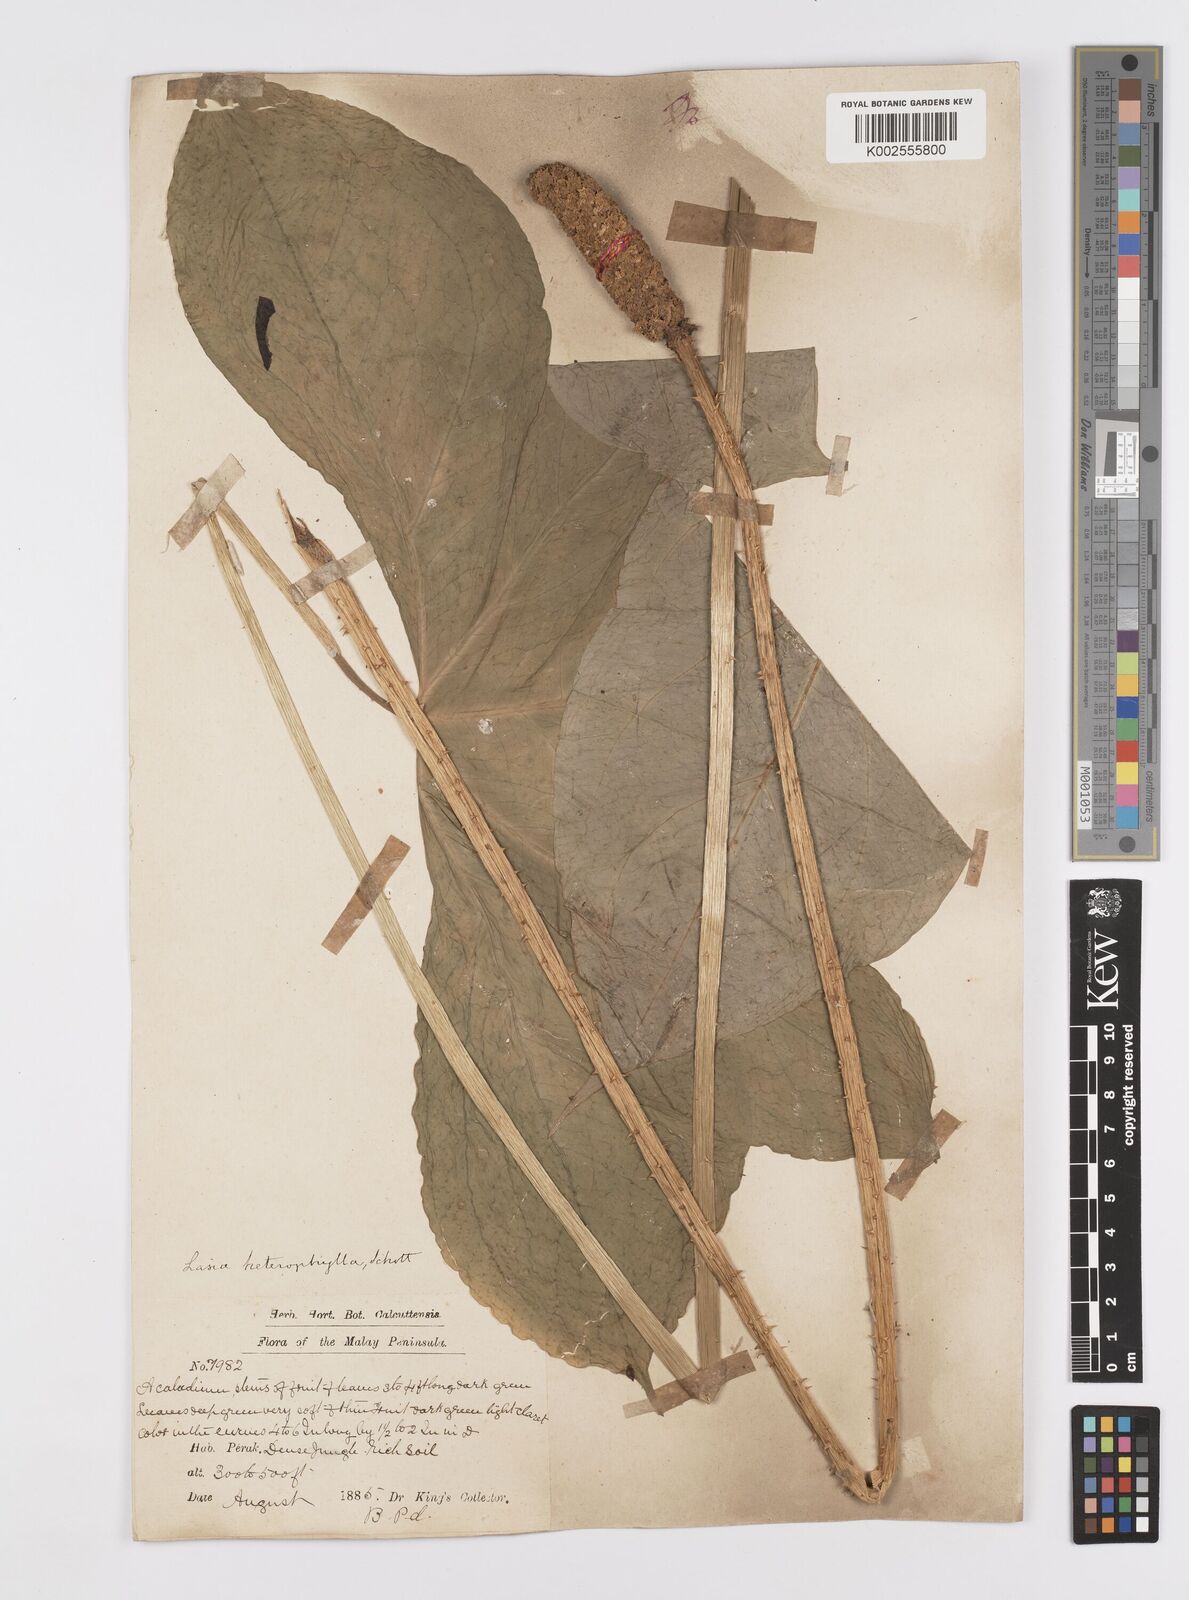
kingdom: Plantae
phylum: Tracheophyta
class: Liliopsida
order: Alismatales
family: Araceae
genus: Lasia
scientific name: Lasia spinosa
